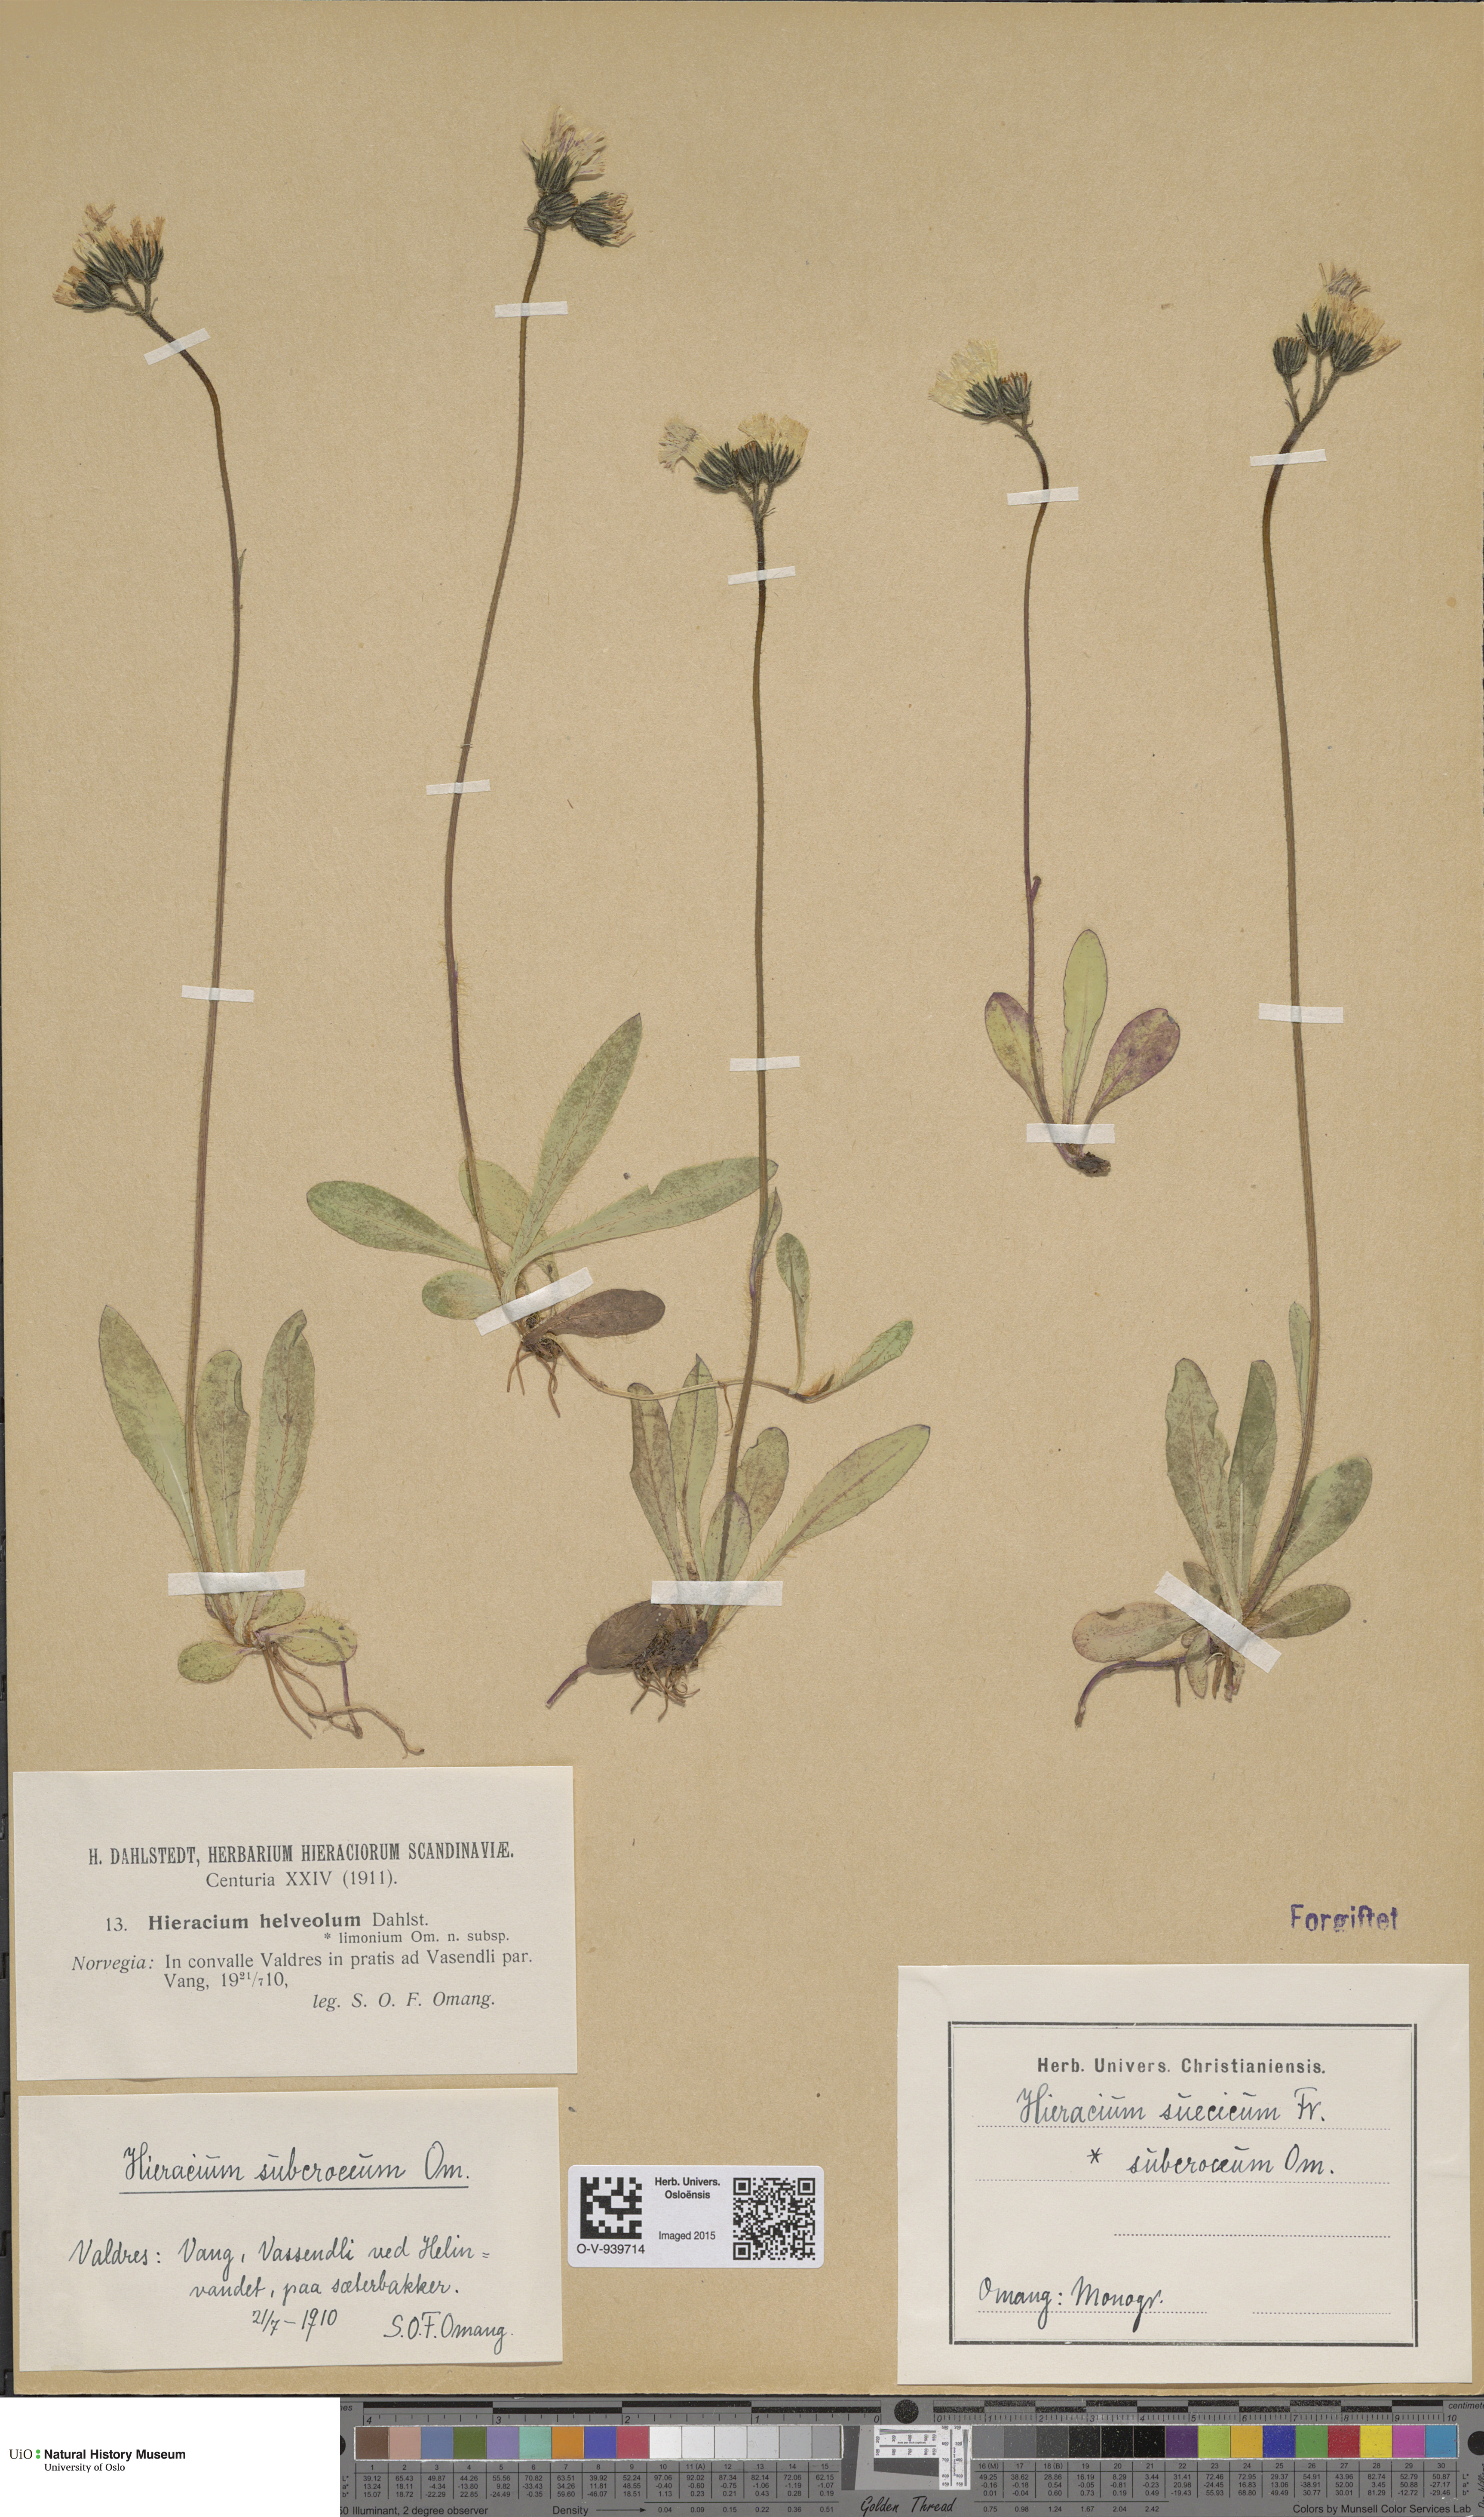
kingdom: Plantae
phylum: Tracheophyta
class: Magnoliopsida
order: Asterales
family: Asteraceae
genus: Pilosella
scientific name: Pilosella dubia
